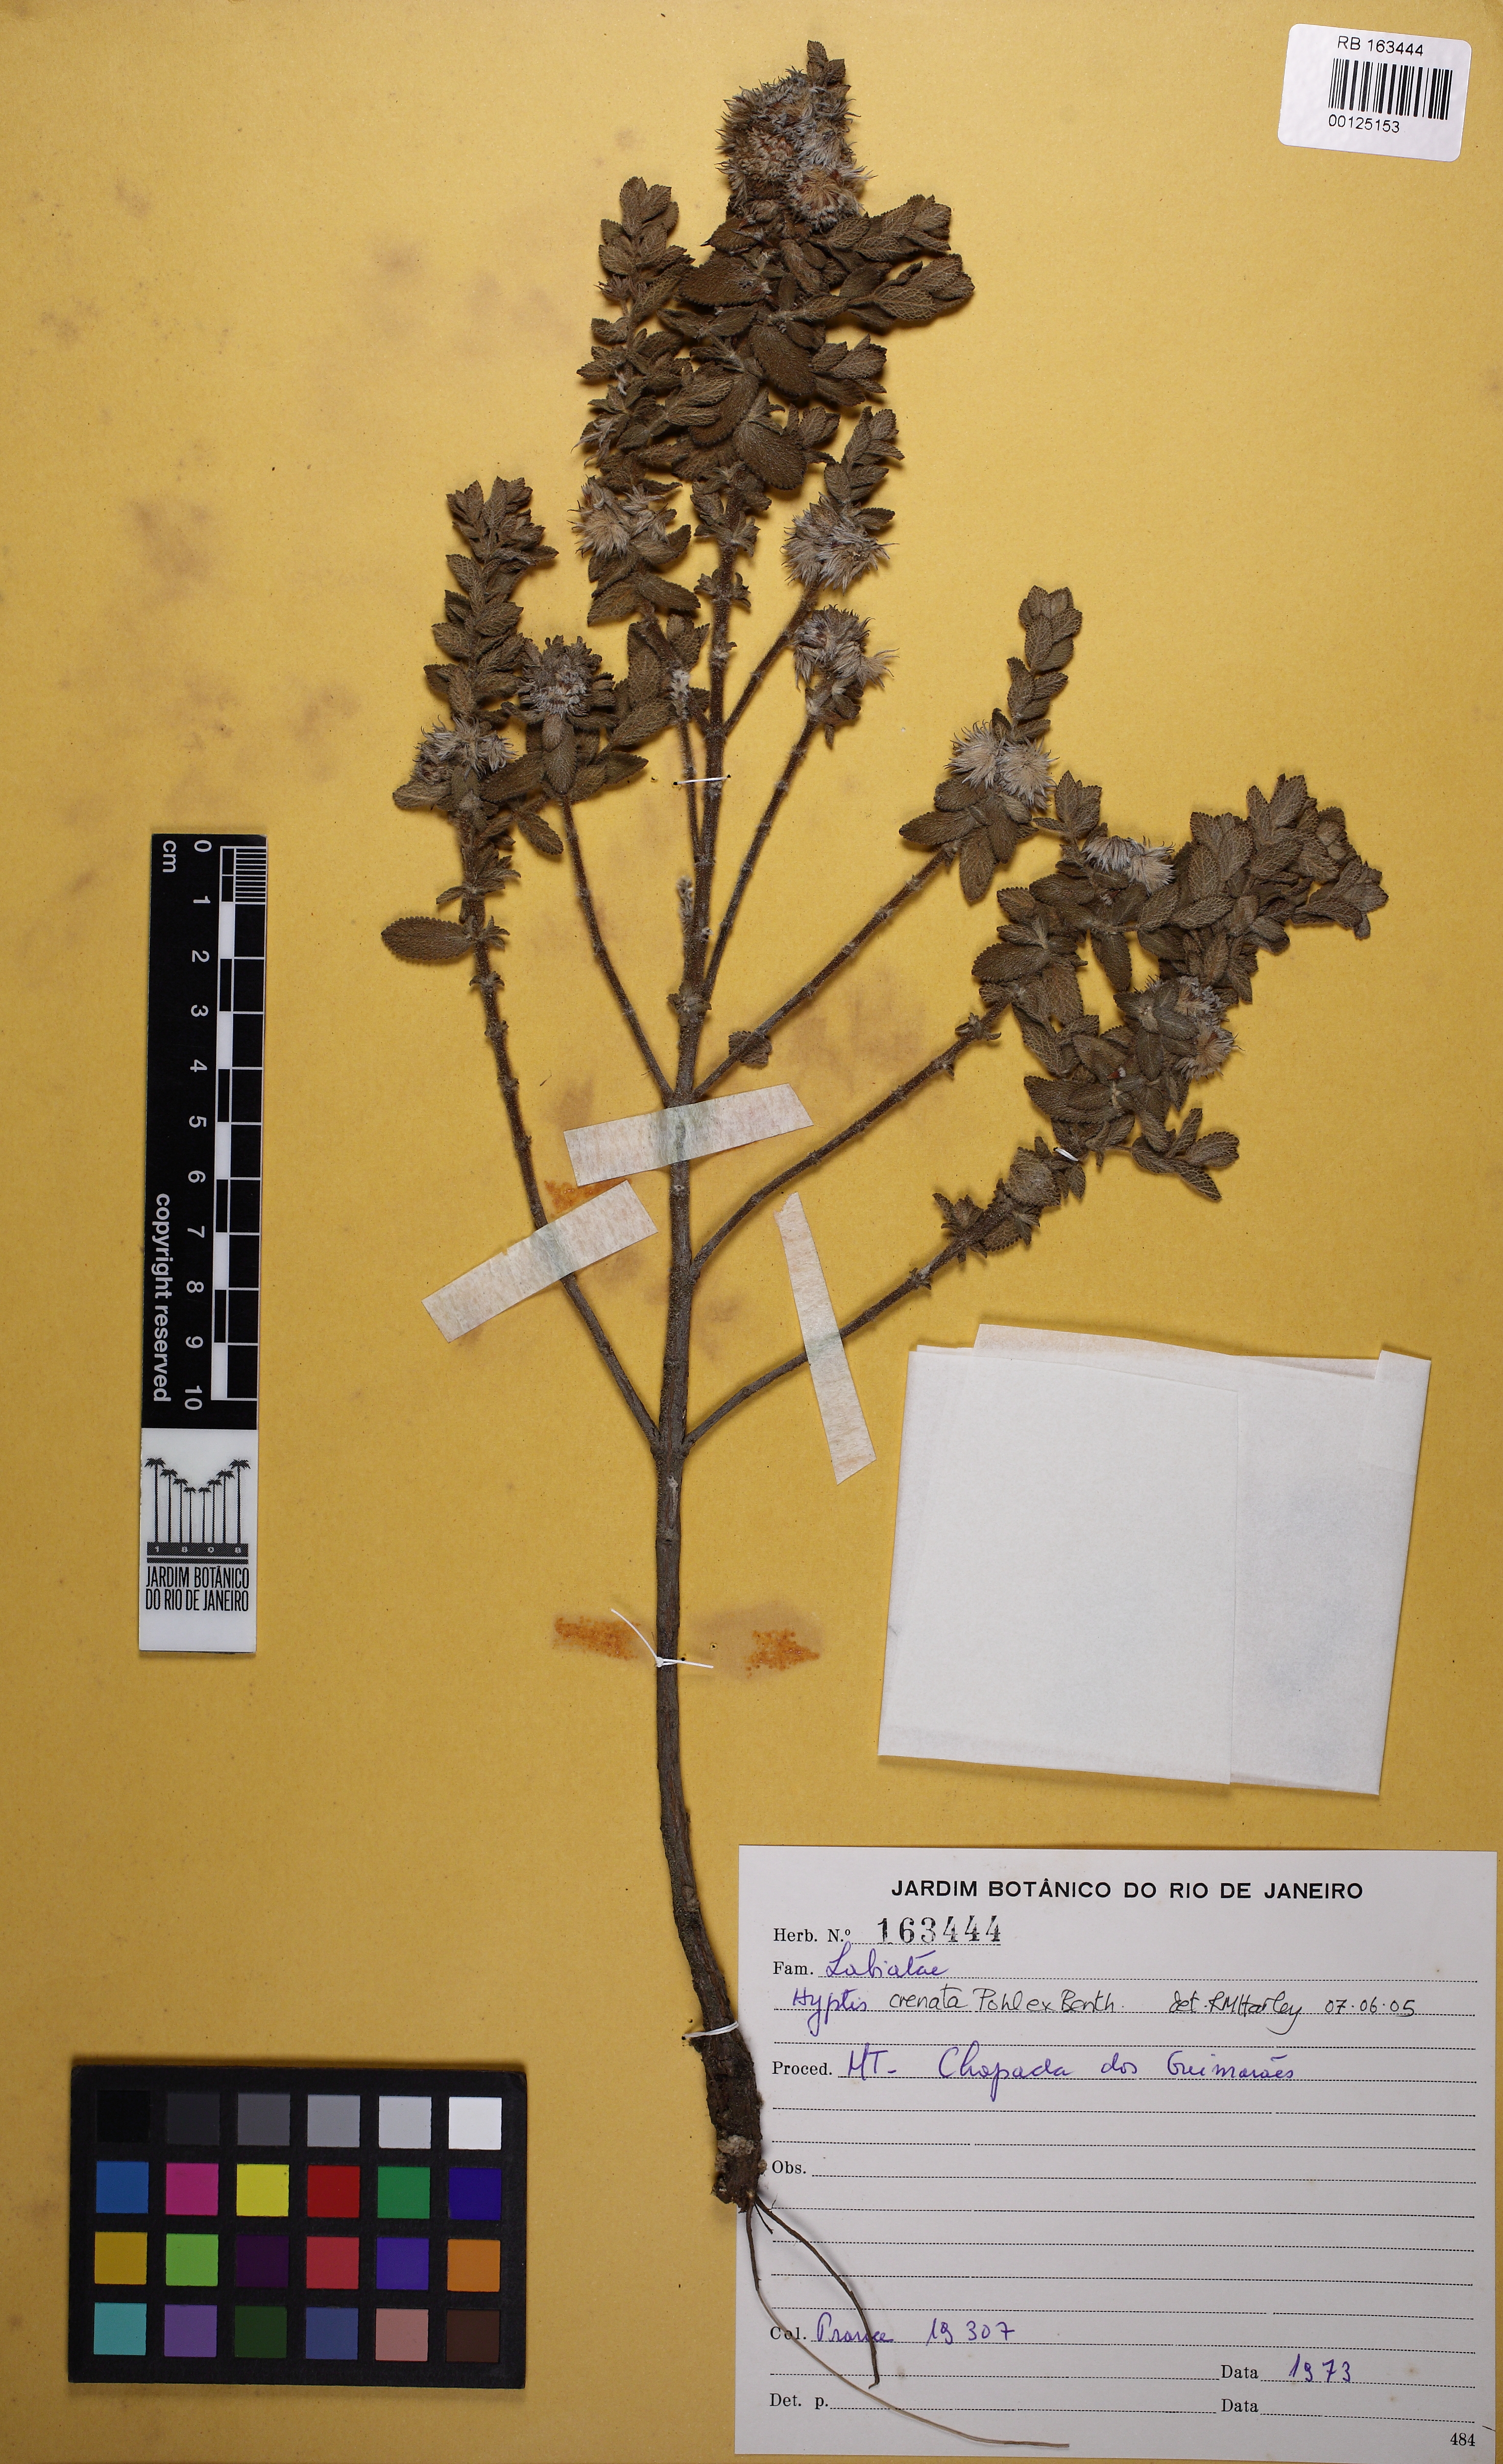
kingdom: Plantae
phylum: Tracheophyta
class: Magnoliopsida
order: Lamiales
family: Lamiaceae
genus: Hyptis
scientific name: Hyptis crenata
